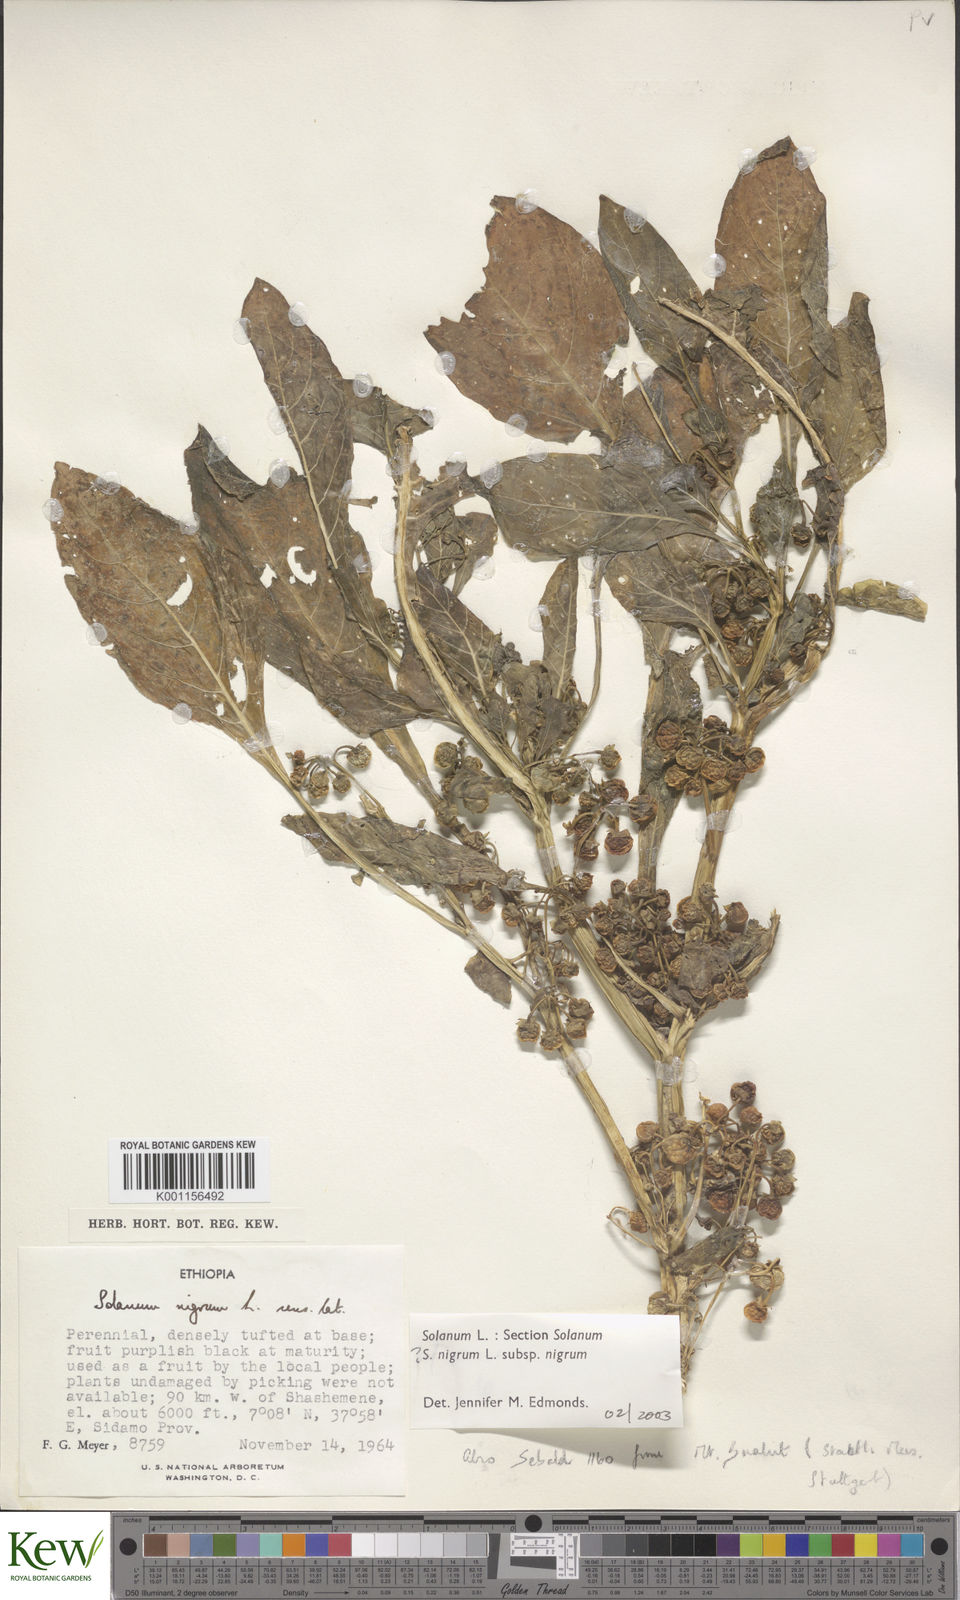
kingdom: Plantae
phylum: Tracheophyta
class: Magnoliopsida
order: Solanales
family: Solanaceae
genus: Solanum
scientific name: Solanum tarderemotum
